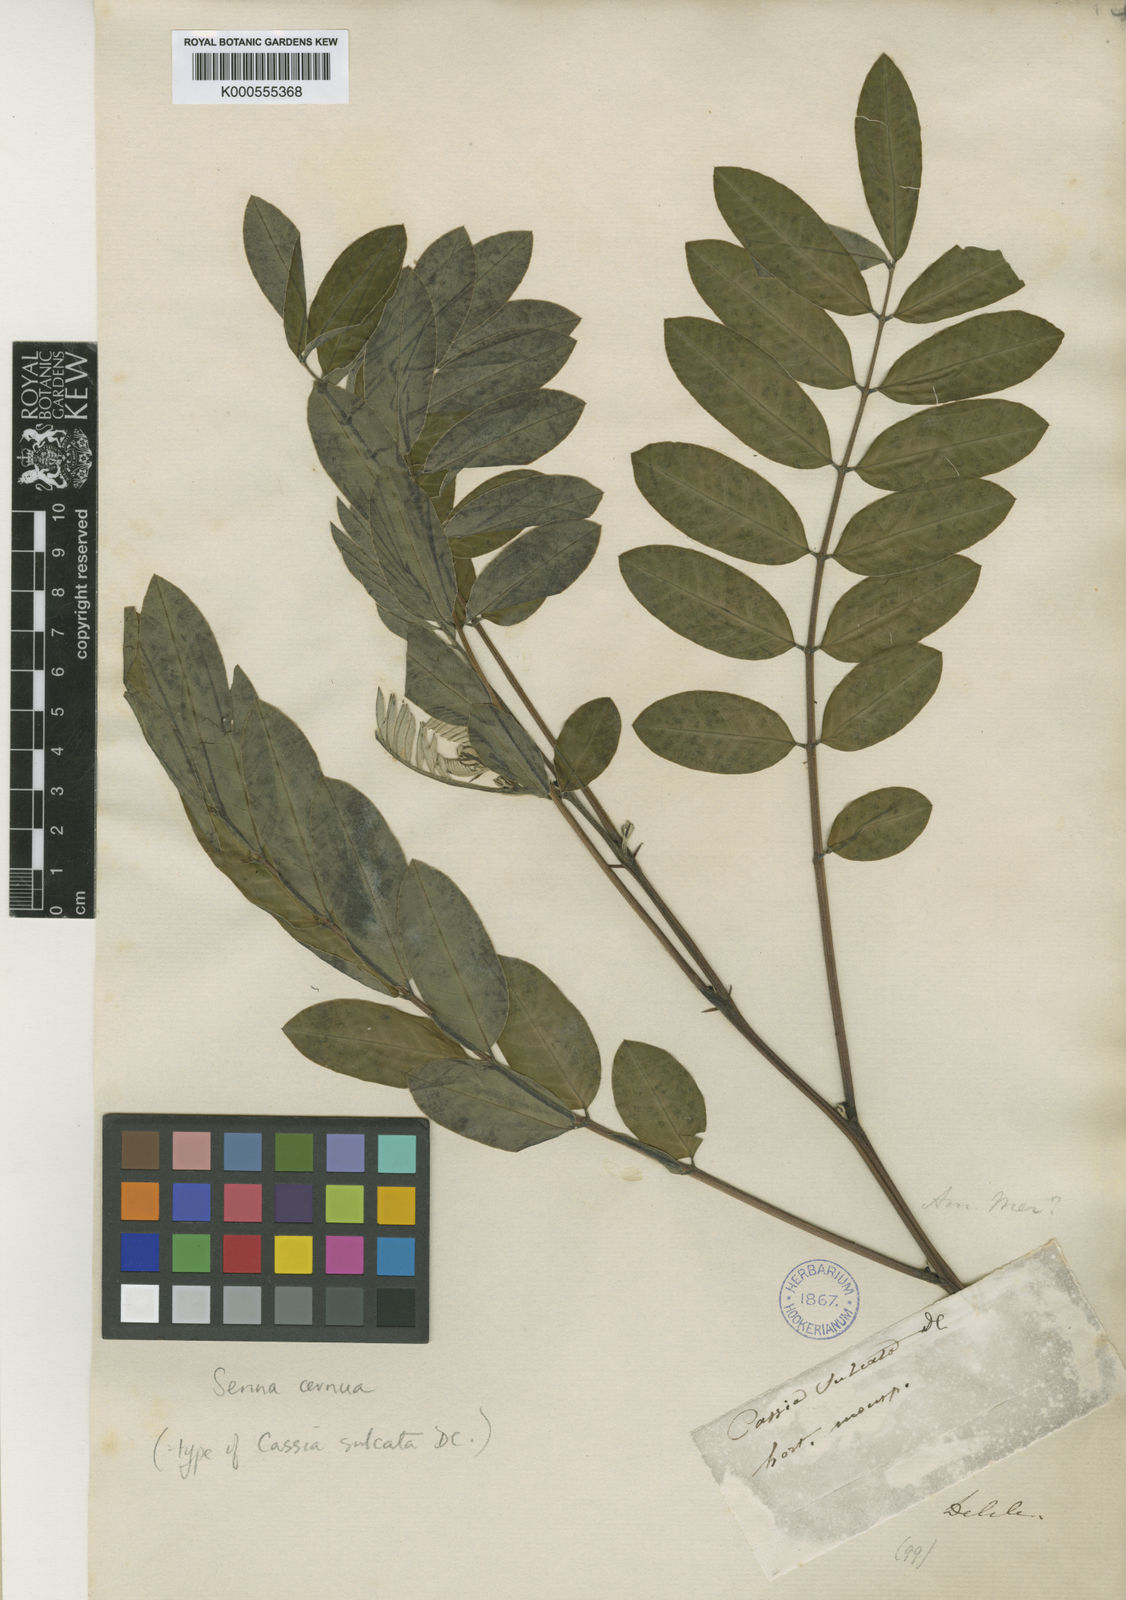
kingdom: Plantae
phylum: Tracheophyta
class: Magnoliopsida
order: Fabales
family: Fabaceae
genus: Senna
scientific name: Senna cernua
